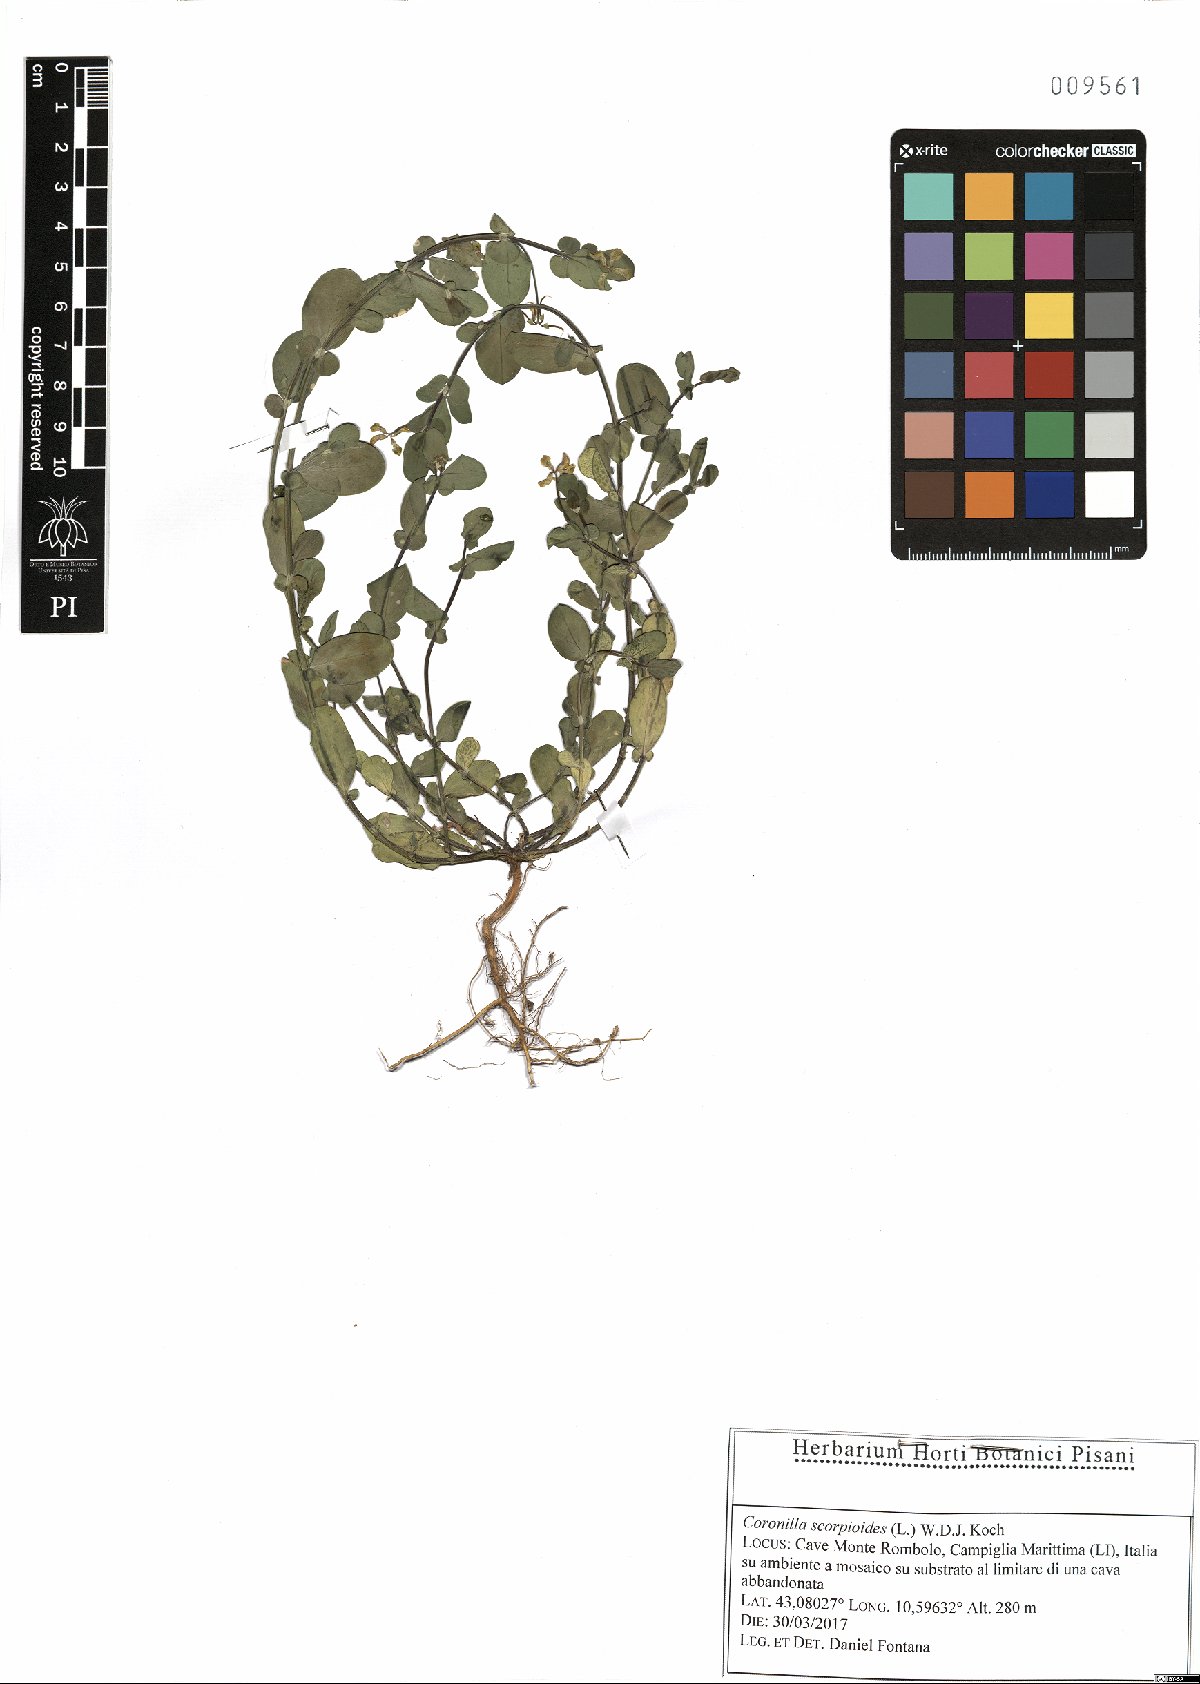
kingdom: Plantae
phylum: Tracheophyta
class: Magnoliopsida
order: Fabales
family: Fabaceae
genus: Coronilla
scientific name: Coronilla scorpioides
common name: Annual scorpion-vetch
